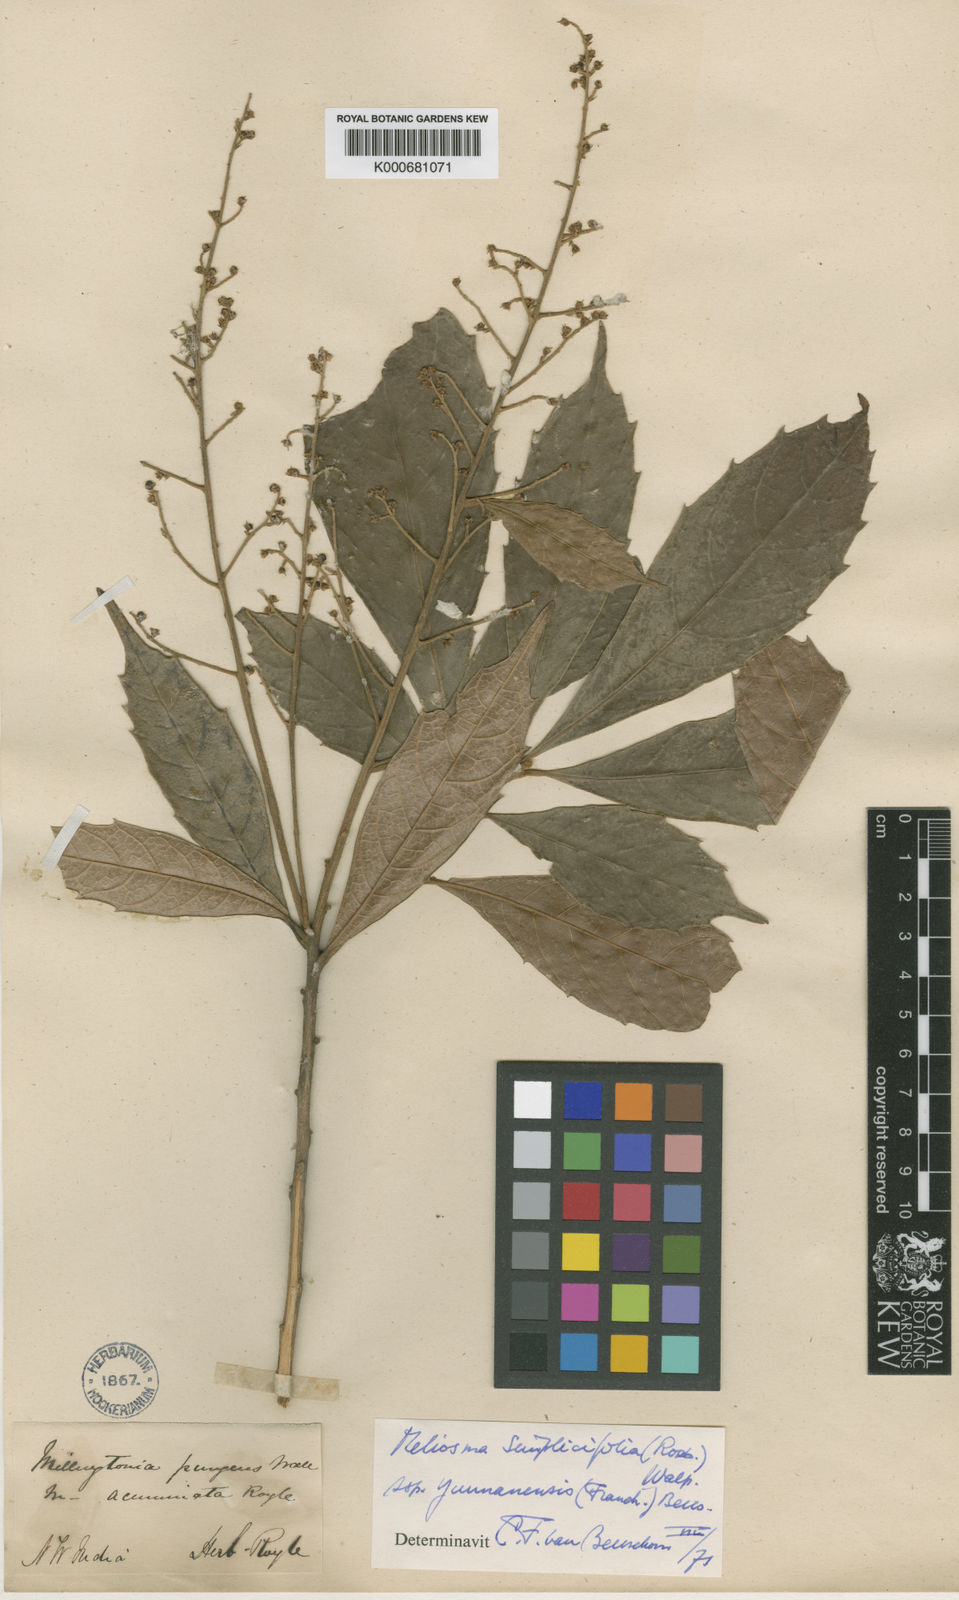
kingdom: Plantae
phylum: Tracheophyta
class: Magnoliopsida
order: Proteales
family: Sabiaceae
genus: Meliosma
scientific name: Meliosma yunnanensis
